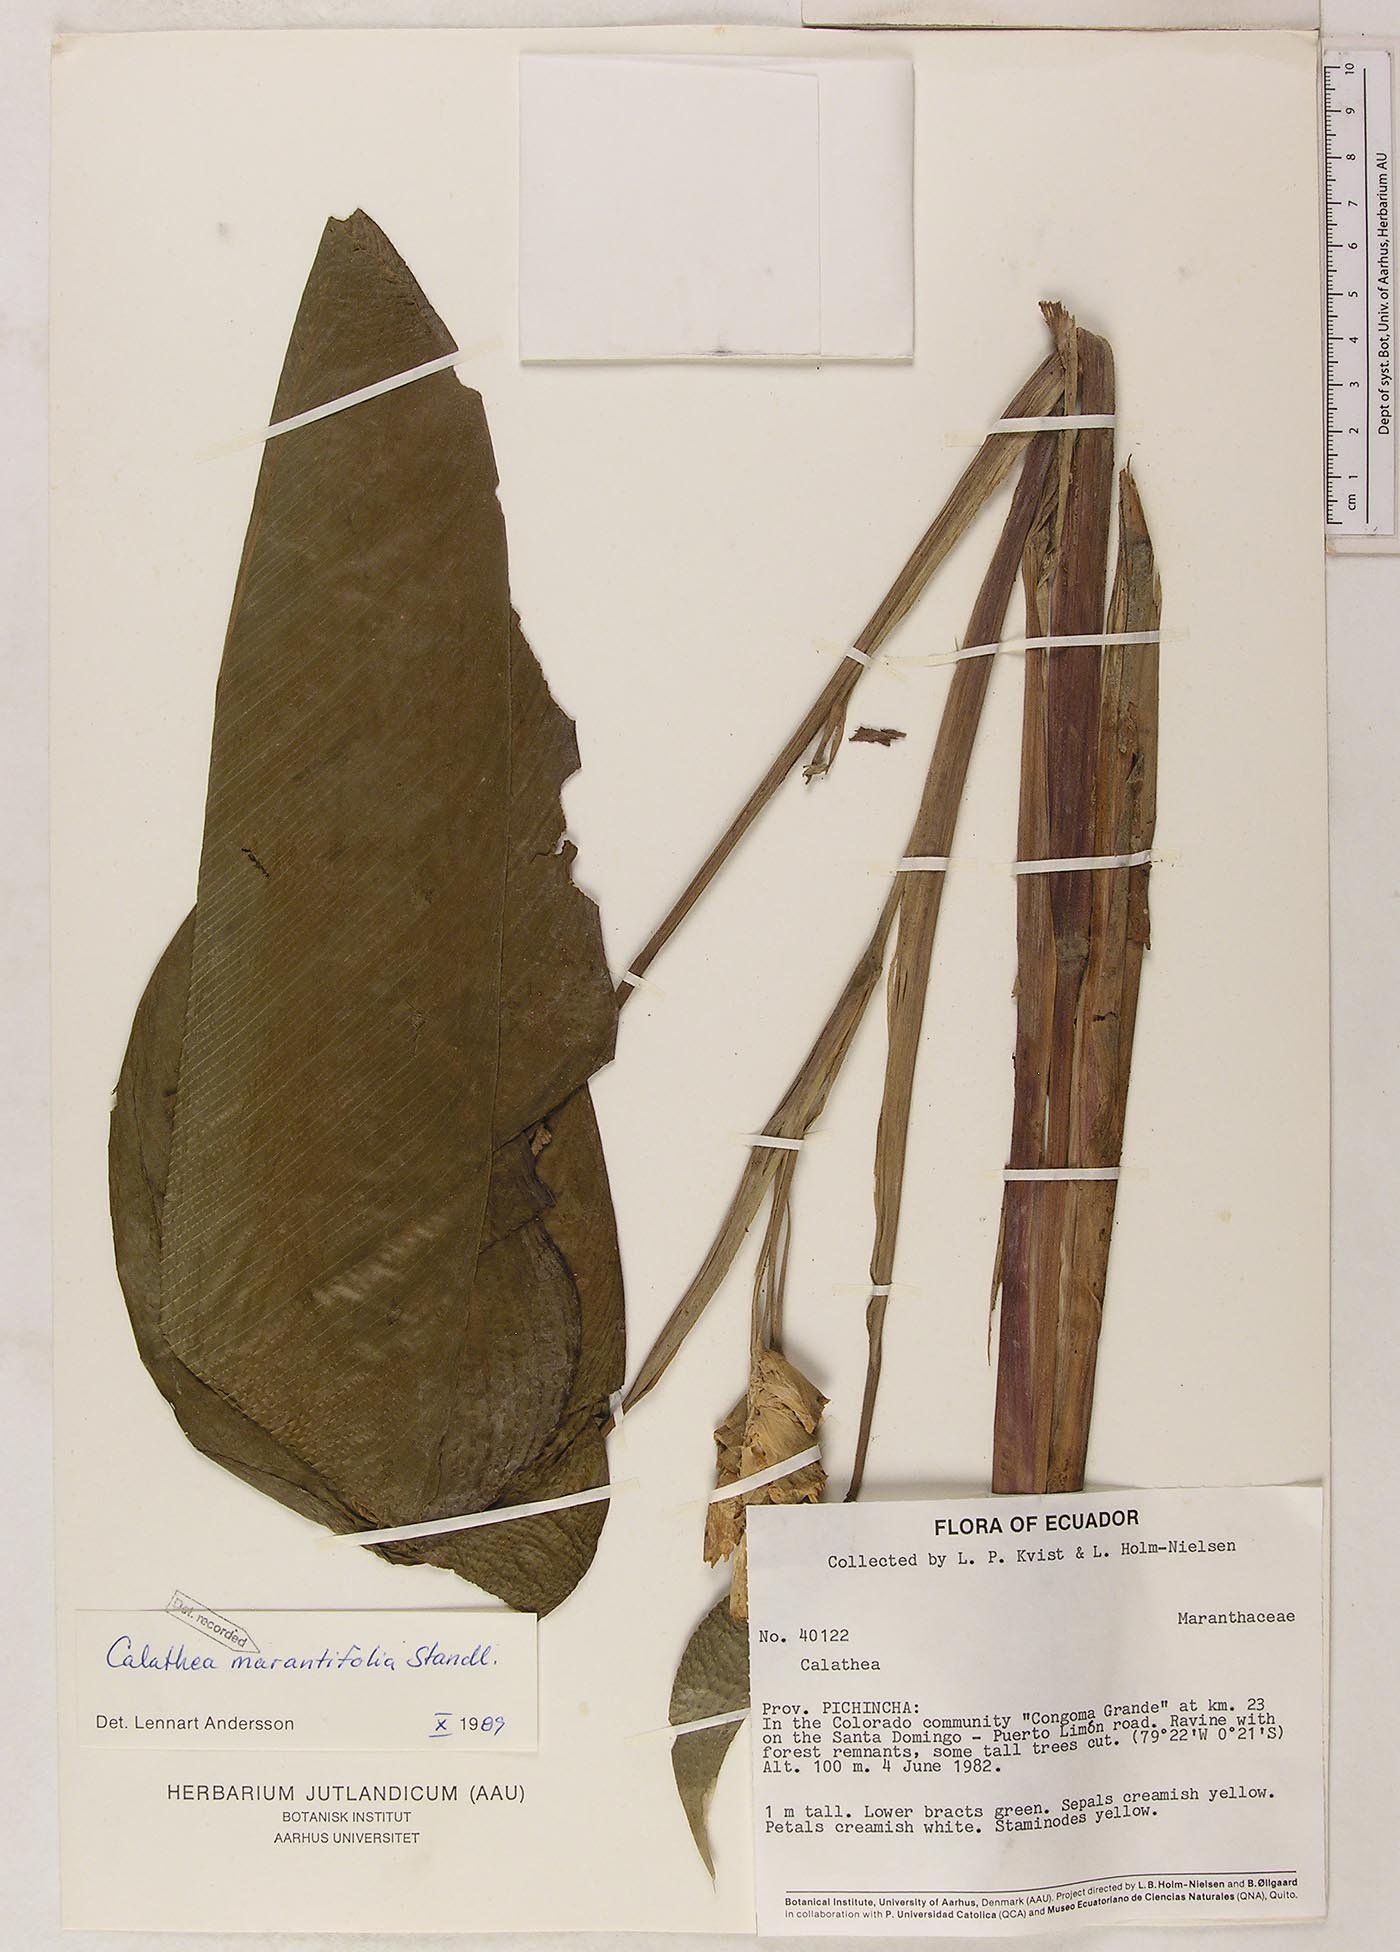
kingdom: Plantae
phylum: Tracheophyta
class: Liliopsida
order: Zingiberales
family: Marantaceae
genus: Goeppertia
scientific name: Goeppertia marantifolia
